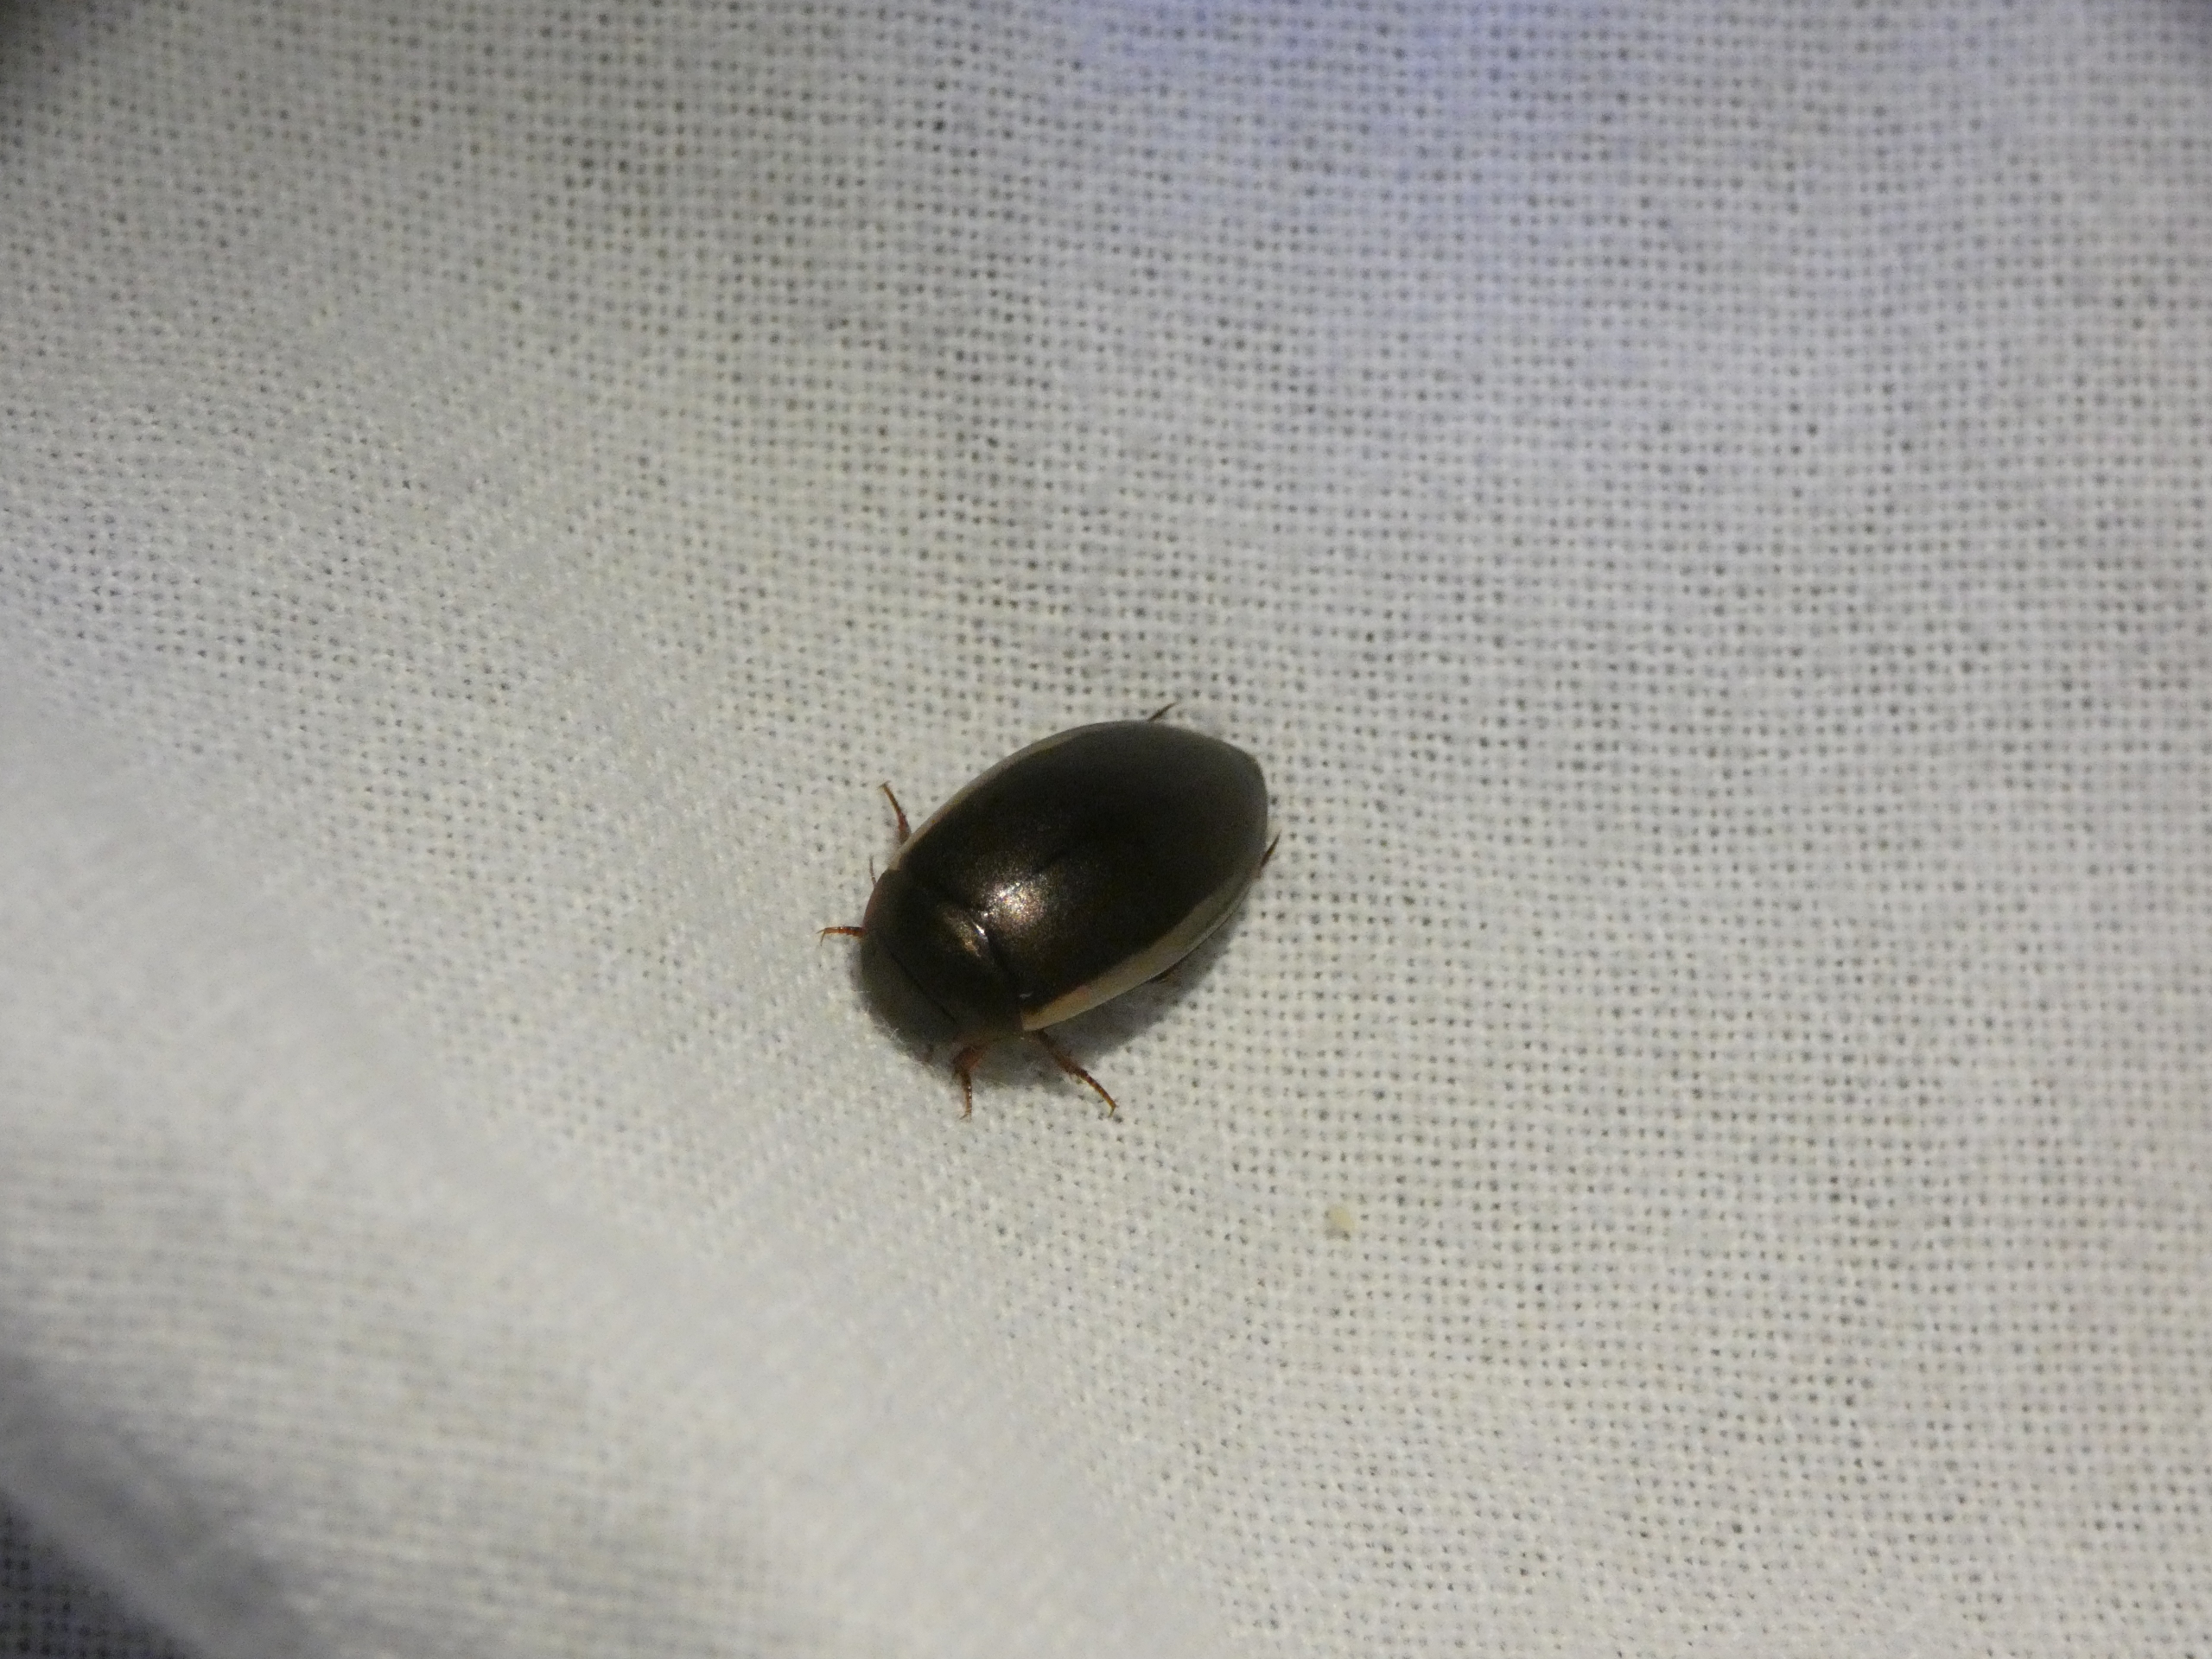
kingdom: Animalia
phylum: Arthropoda
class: Insecta
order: Coleoptera
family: Dytiscidae
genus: Ilybius
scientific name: Ilybius fuliginosus
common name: Gulrandet damvandkalv
